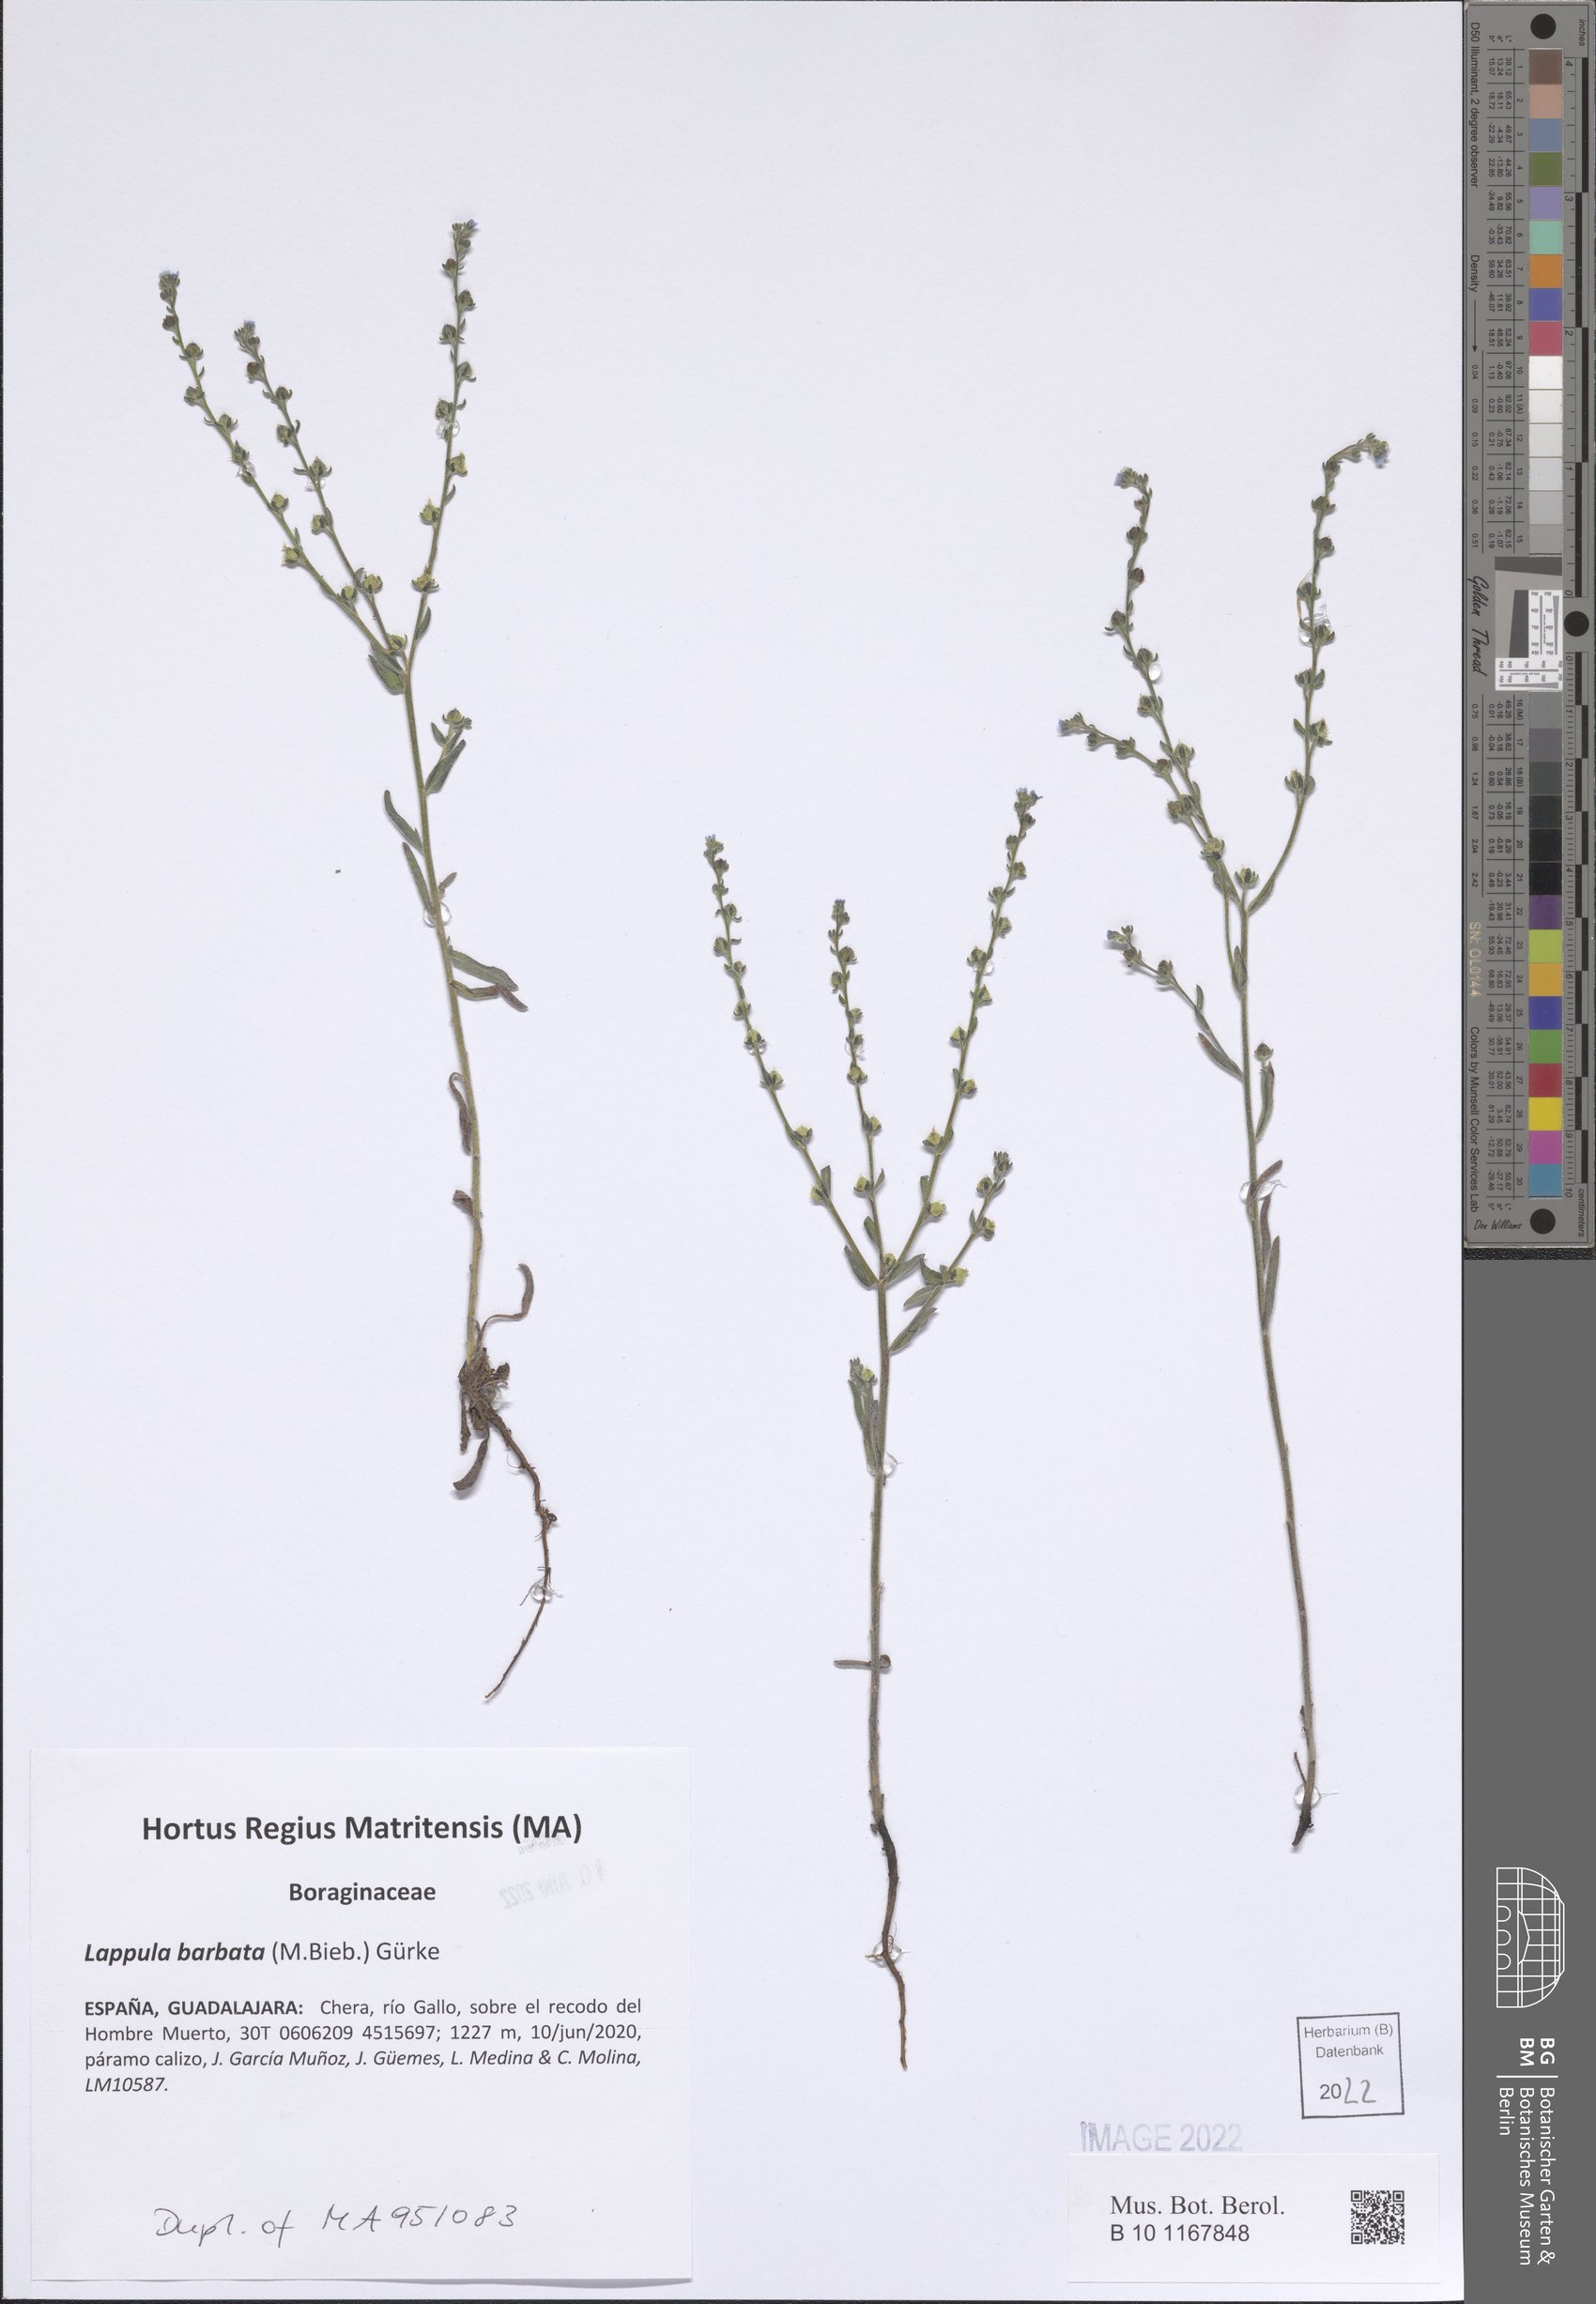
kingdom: Plantae
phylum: Tracheophyta
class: Magnoliopsida
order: Boraginales
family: Boraginaceae
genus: Lappula
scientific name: Lappula barbata
